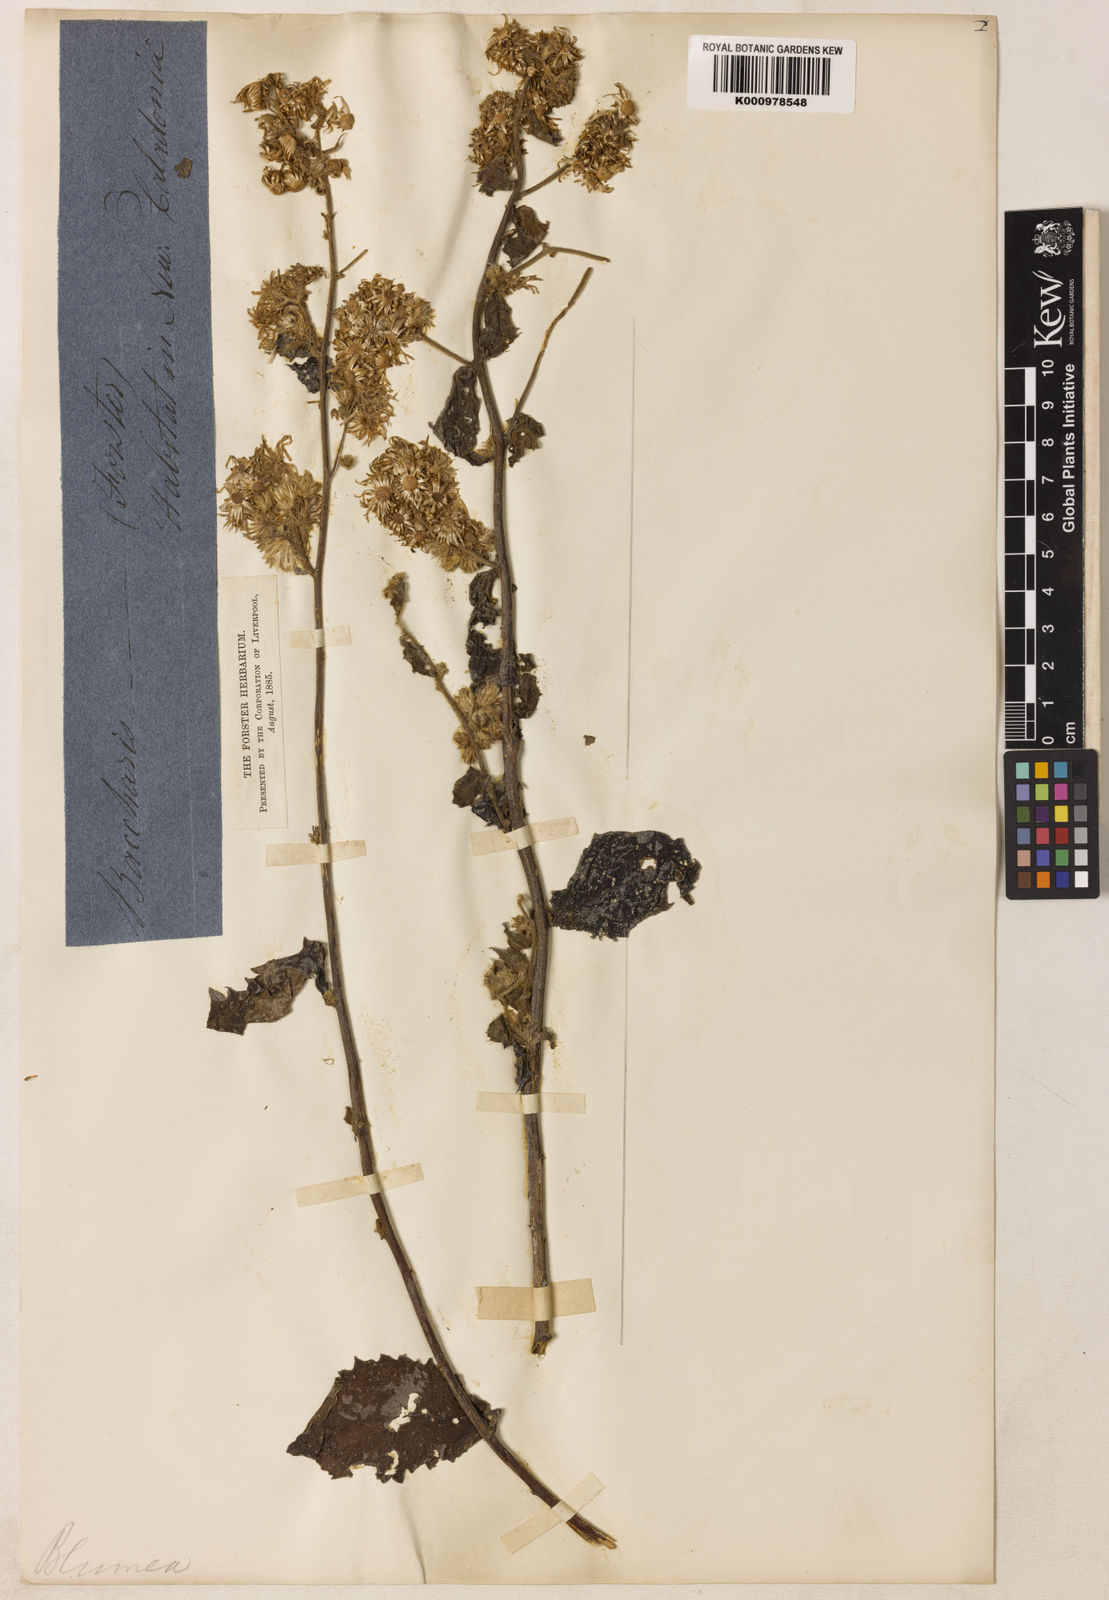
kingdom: Plantae
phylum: Tracheophyta
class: Magnoliopsida
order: Asterales
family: Asteraceae
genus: Blumea
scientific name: Blumea riparia
